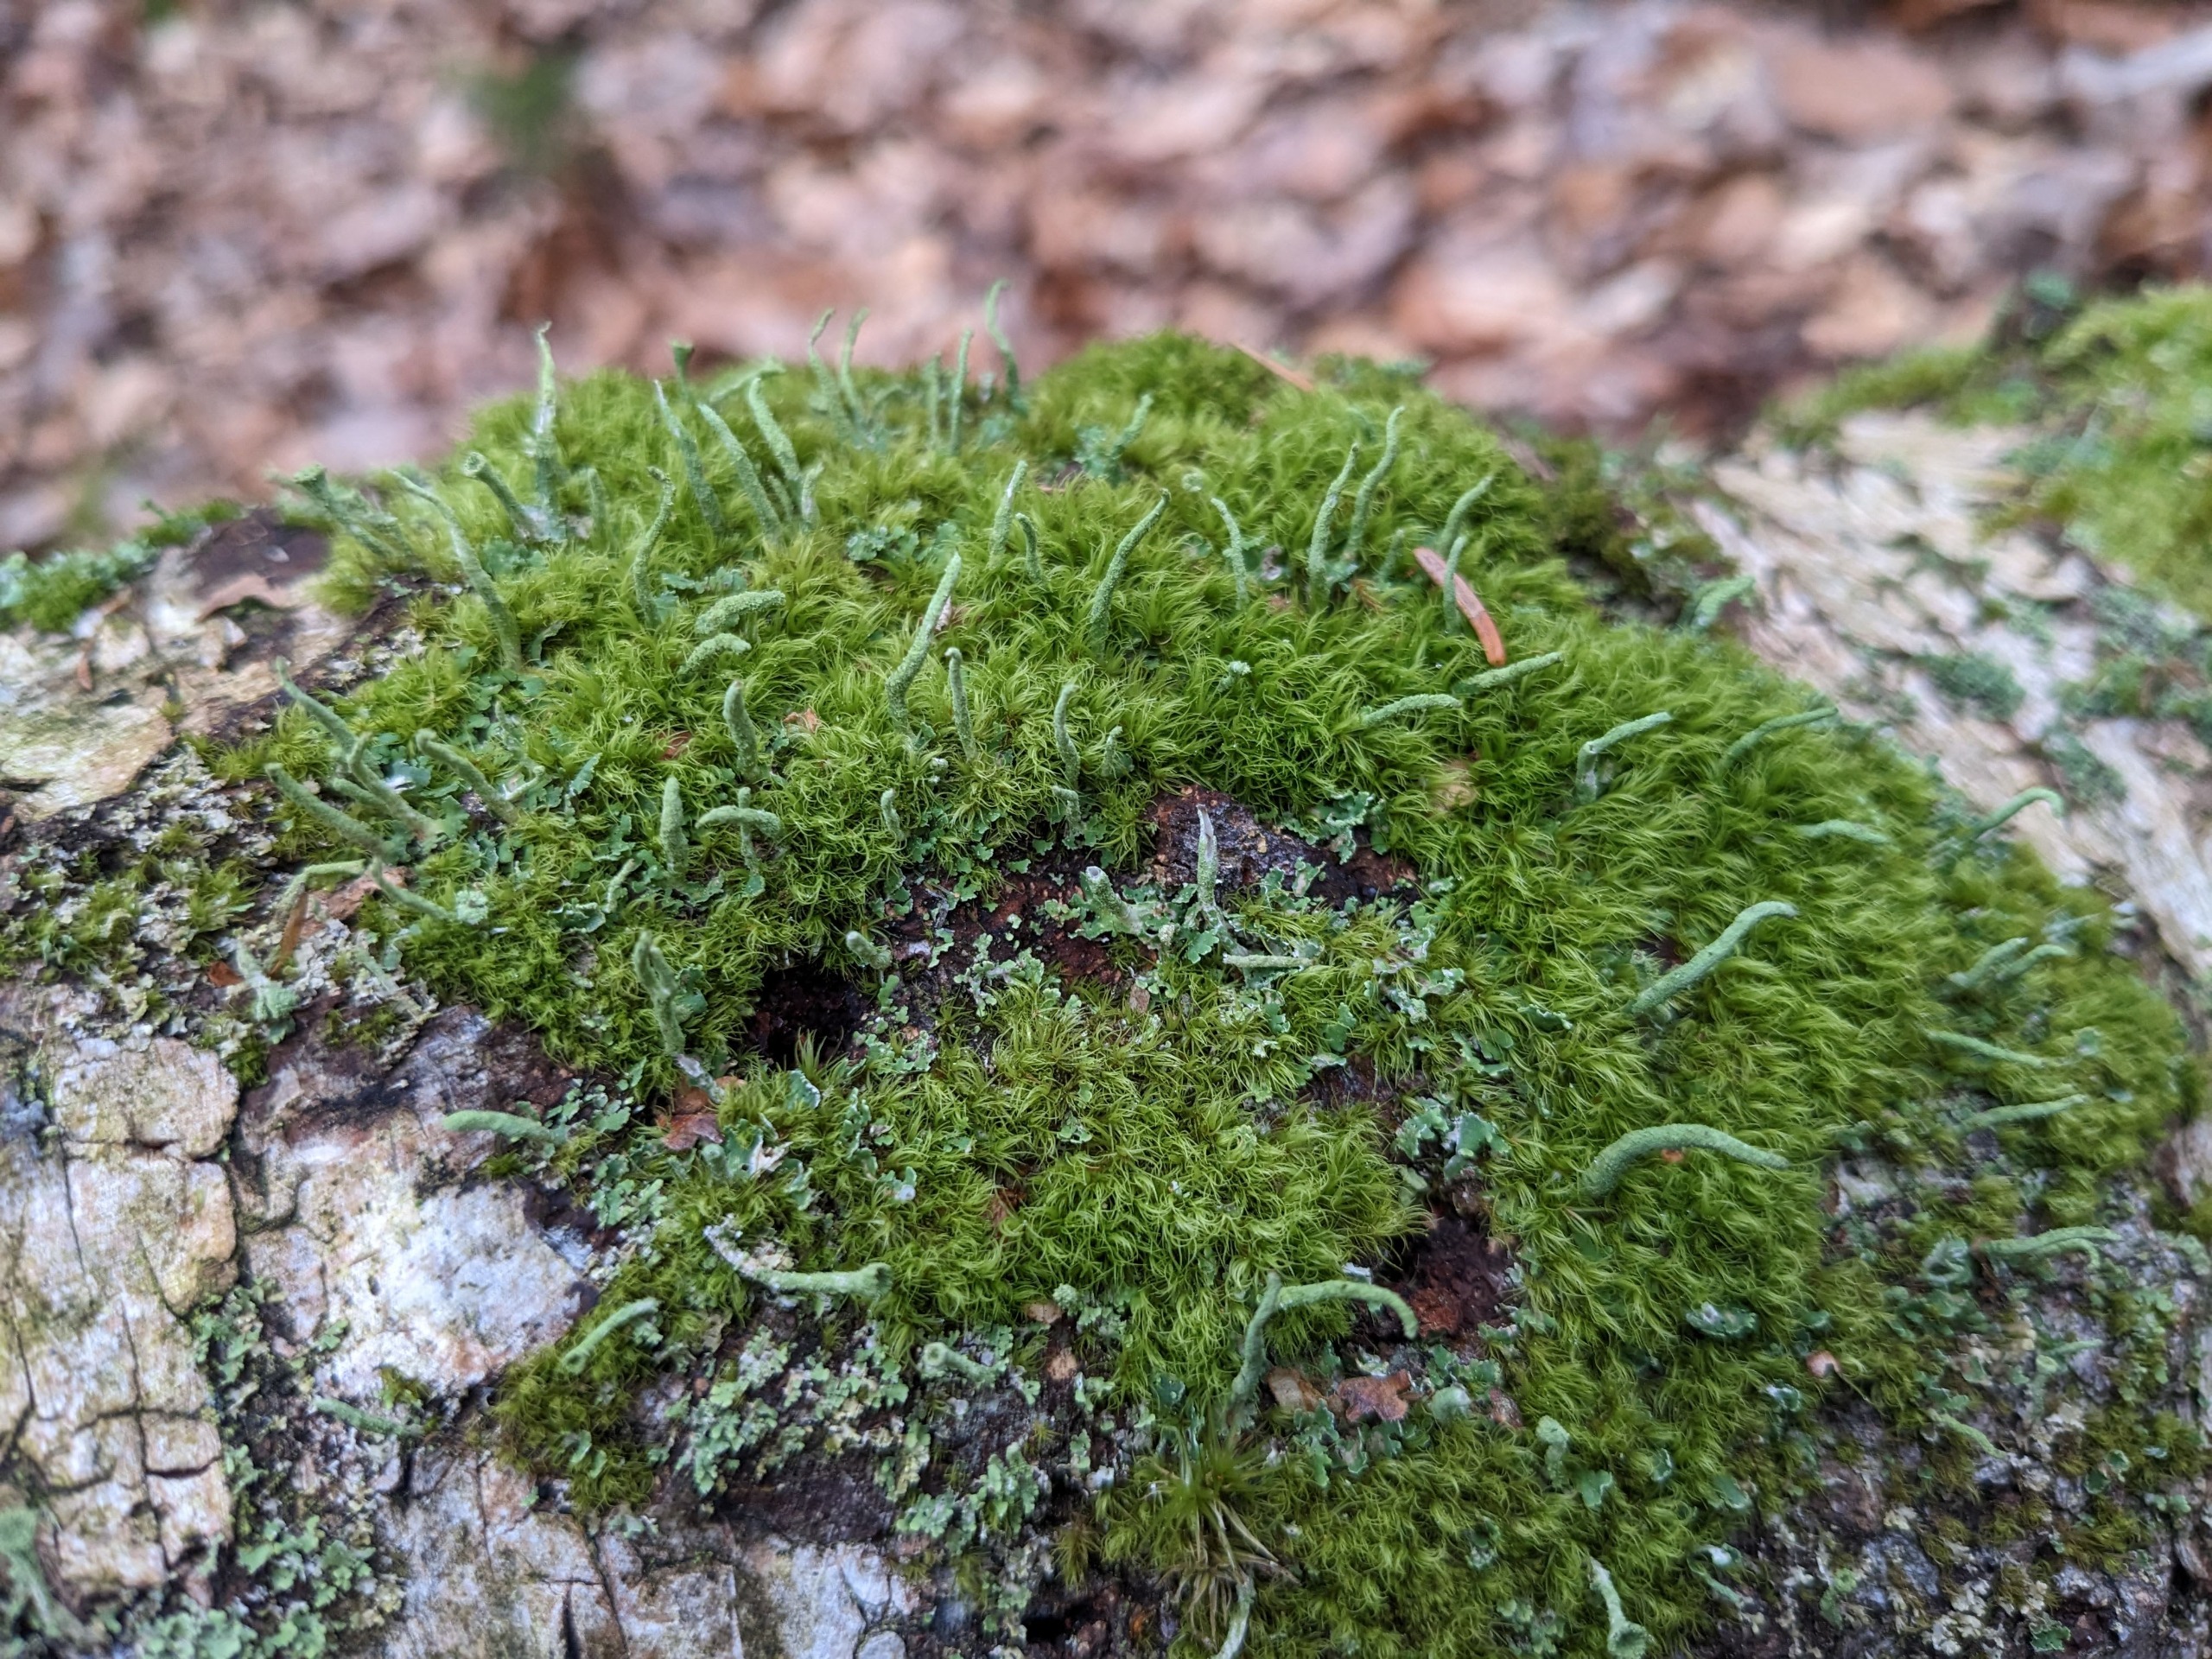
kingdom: Plantae
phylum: Bryophyta
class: Bryopsida
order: Dicranales
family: Dicranaceae
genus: Orthodicranum
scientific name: Orthodicranum montanum
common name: Tæt tyndvinge
